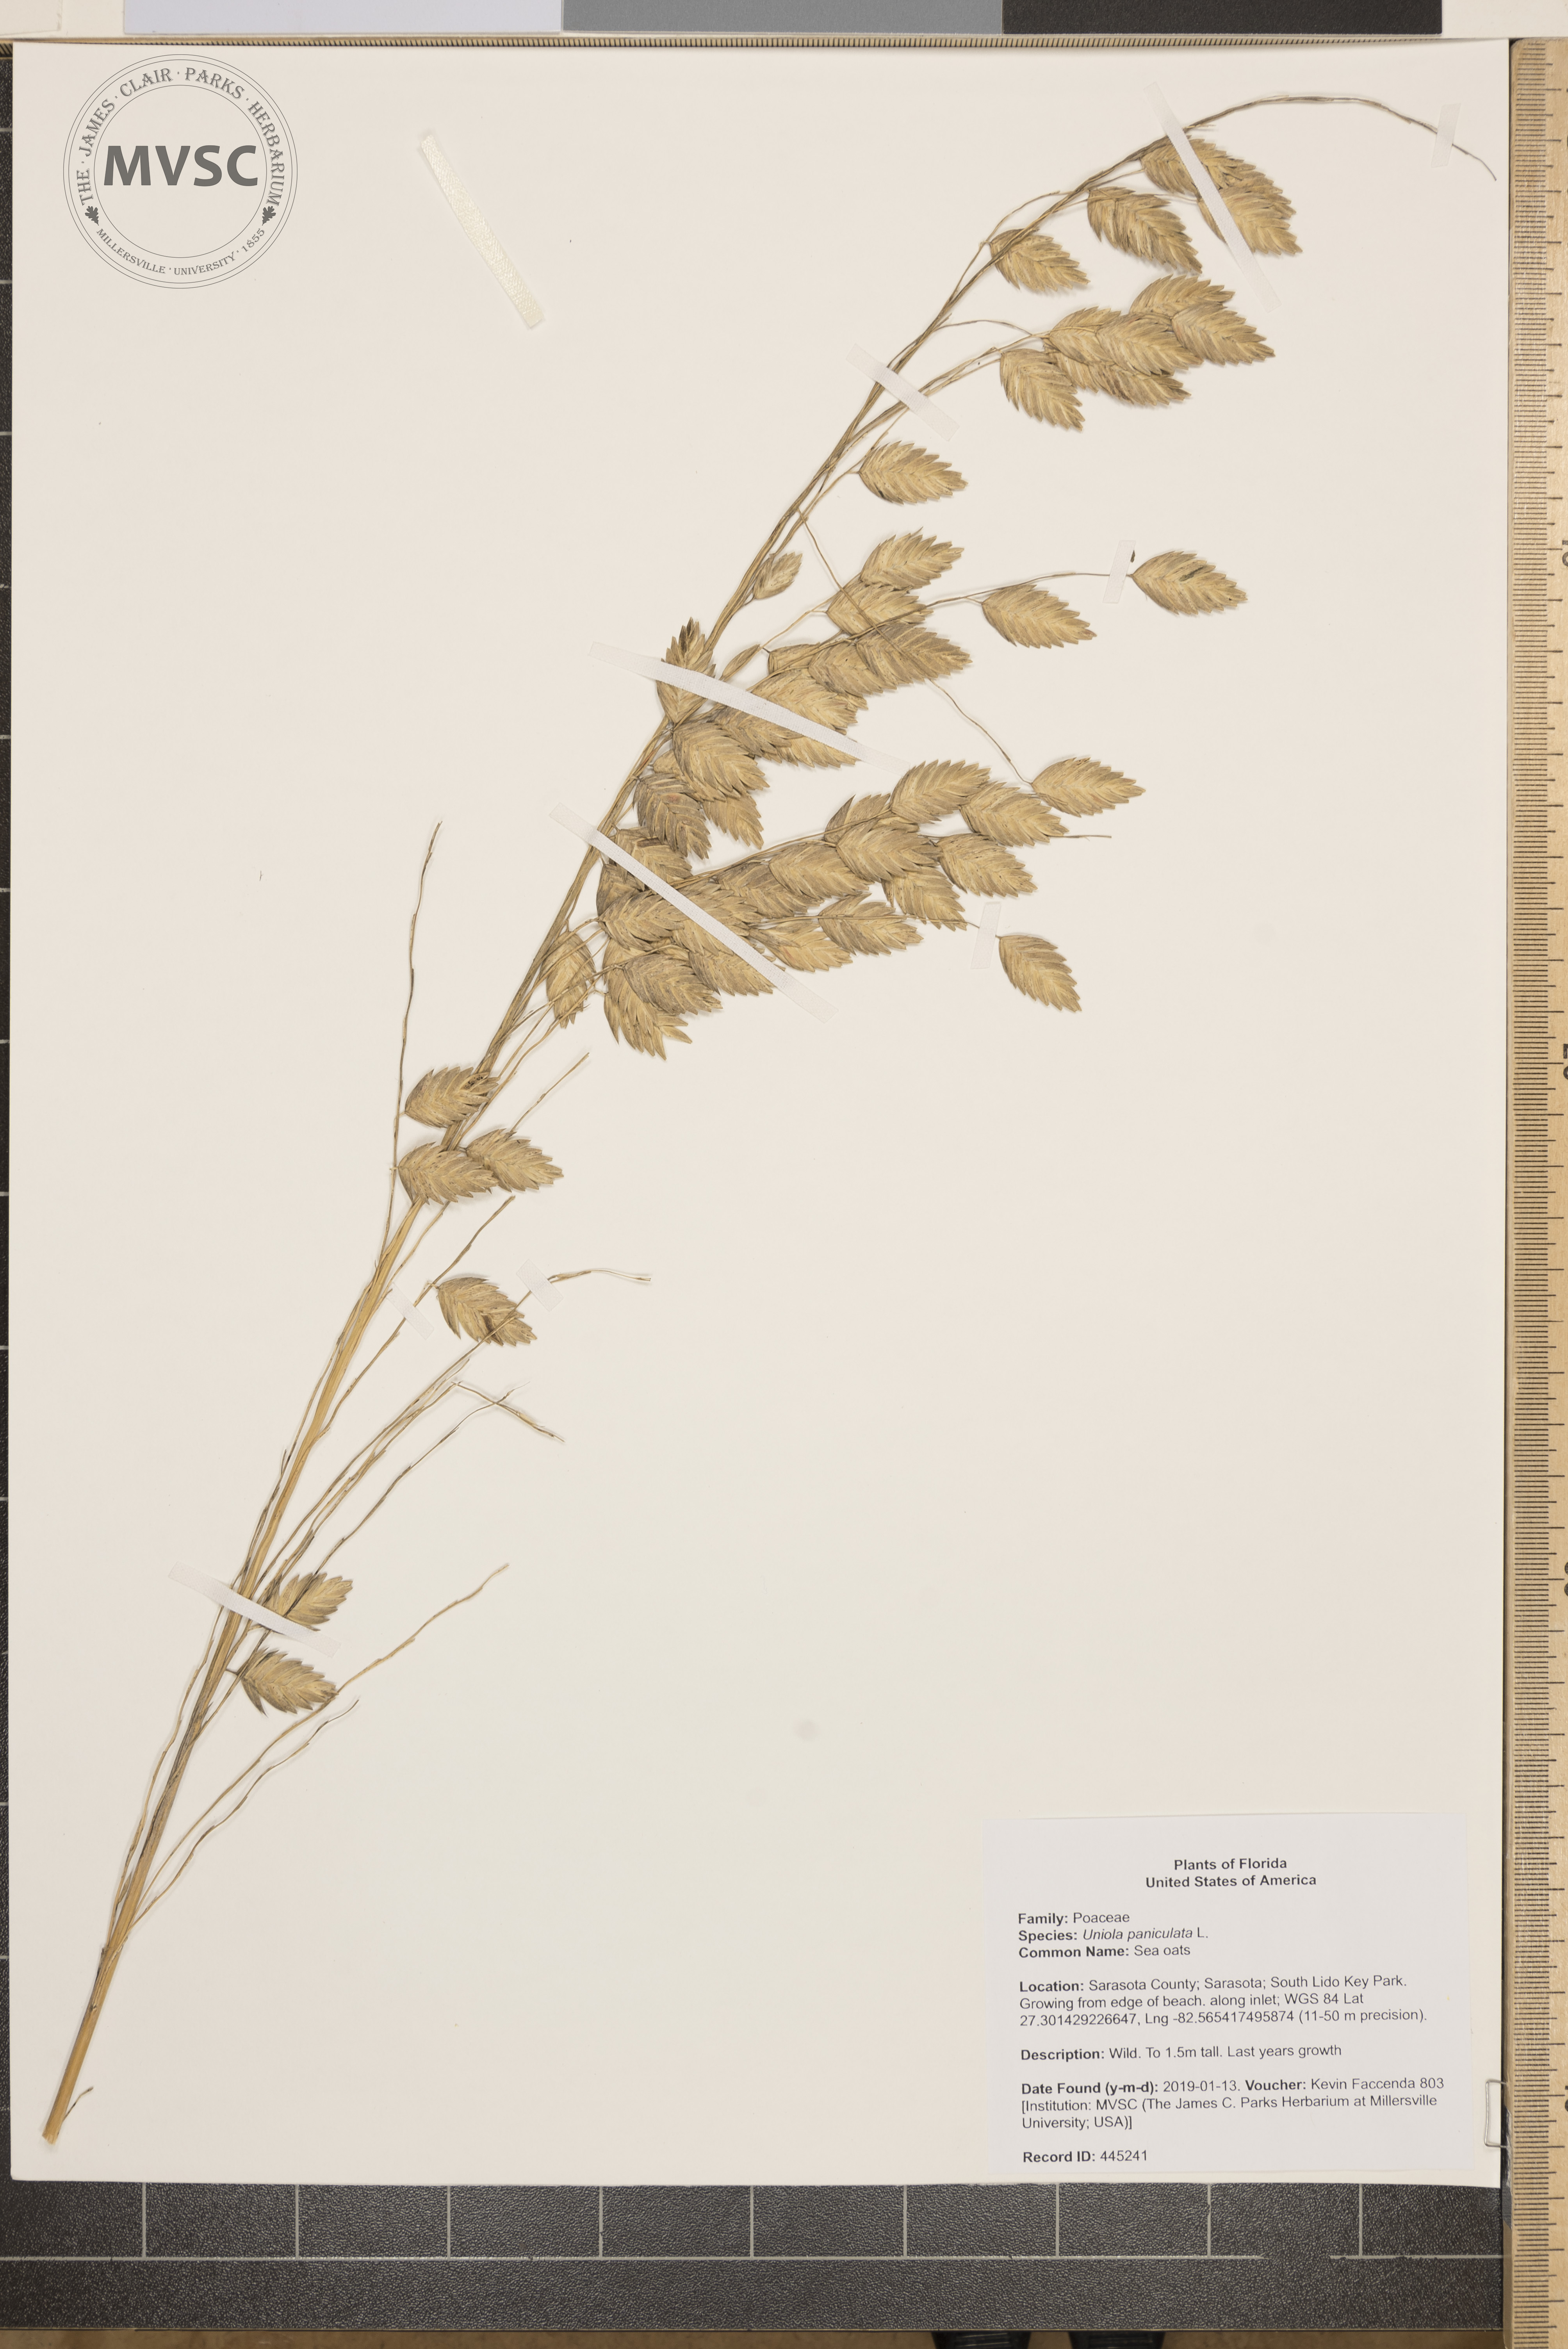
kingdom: Plantae
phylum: Tracheophyta
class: Liliopsida
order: Poales
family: Poaceae
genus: Uniola
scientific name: Uniola paniculata
